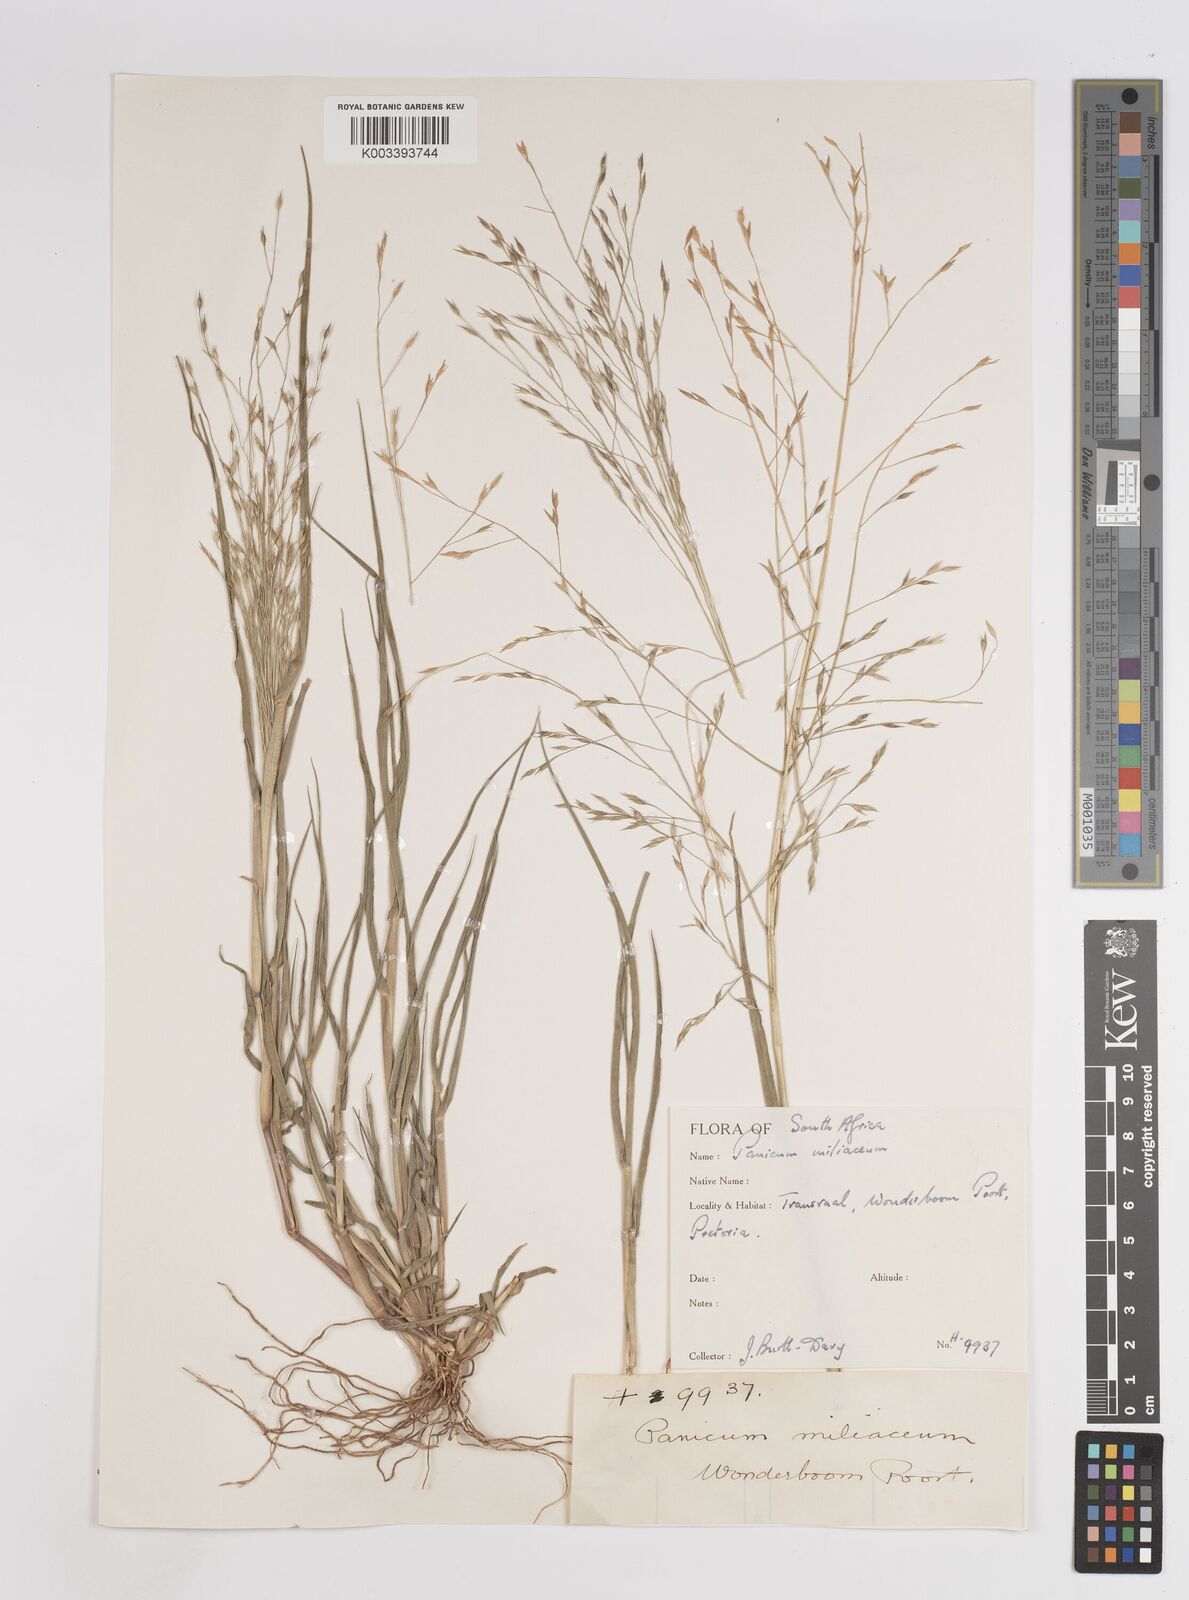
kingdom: Plantae
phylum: Tracheophyta
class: Liliopsida
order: Poales
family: Poaceae
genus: Panicum
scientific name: Panicum volutans
